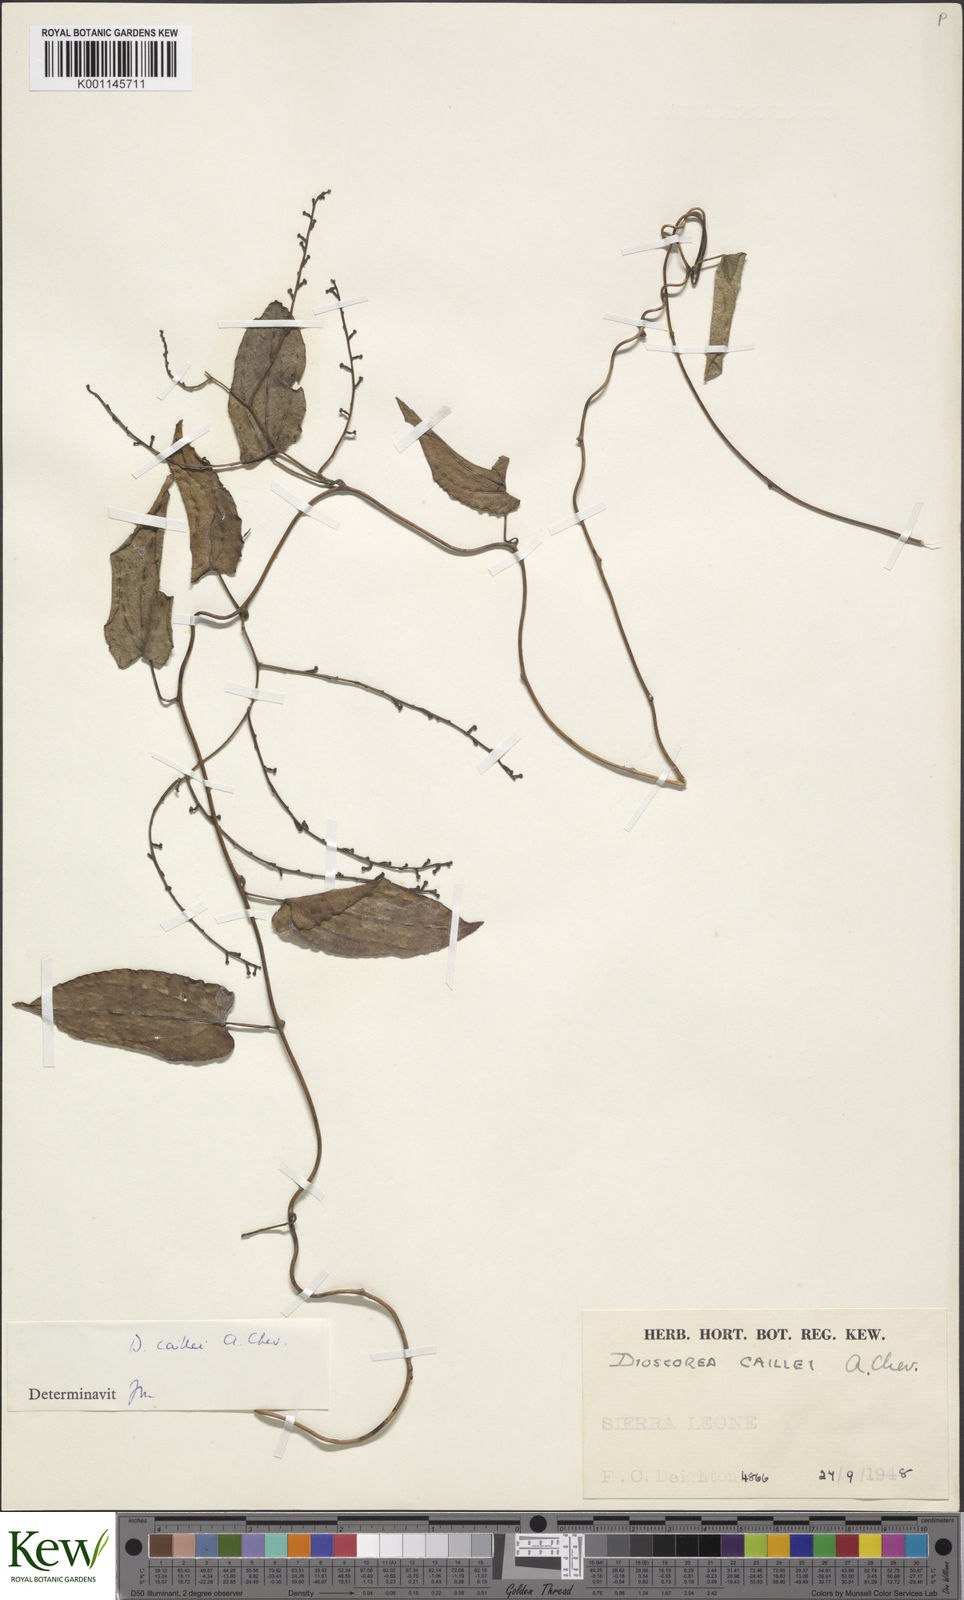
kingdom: Plantae
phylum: Tracheophyta
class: Liliopsida
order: Dioscoreales
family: Dioscoreaceae
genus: Dioscorea
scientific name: Dioscorea sagittifolia
